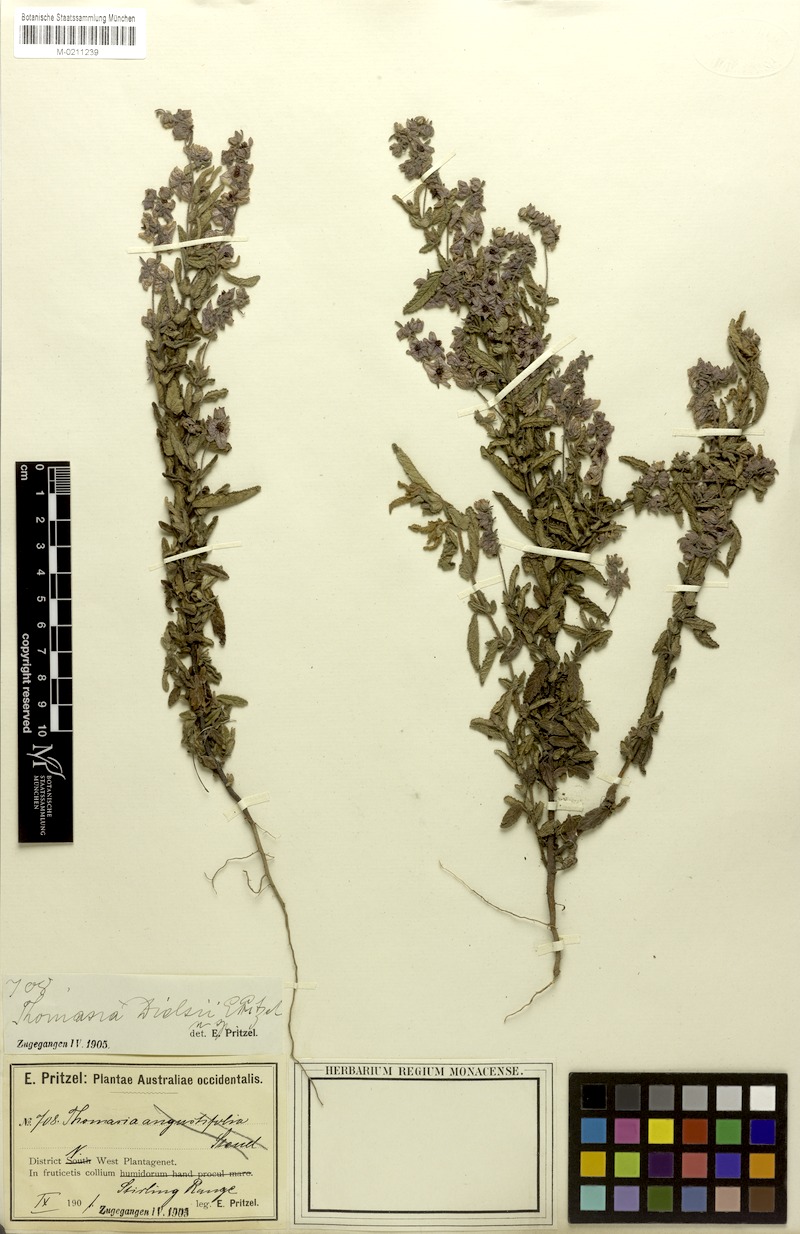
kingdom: Plantae
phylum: Tracheophyta
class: Magnoliopsida
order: Malvales
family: Malvaceae
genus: Thomasia
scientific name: Thomasia dielsii
